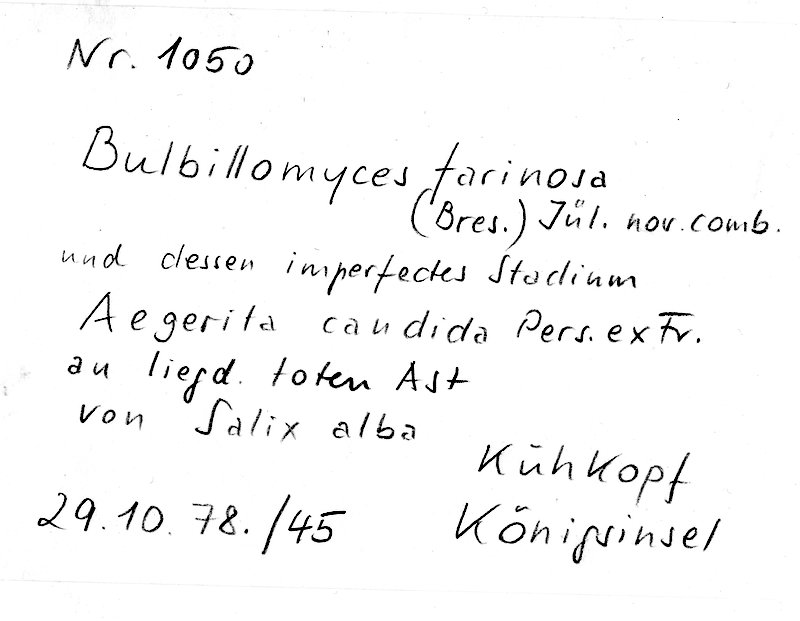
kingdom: Fungi
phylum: Basidiomycota
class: Agaricomycetes
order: Polyporales
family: Meruliaceae
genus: Bulbillomyces
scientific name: Bulbillomyces farinosus
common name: Couscous crust
